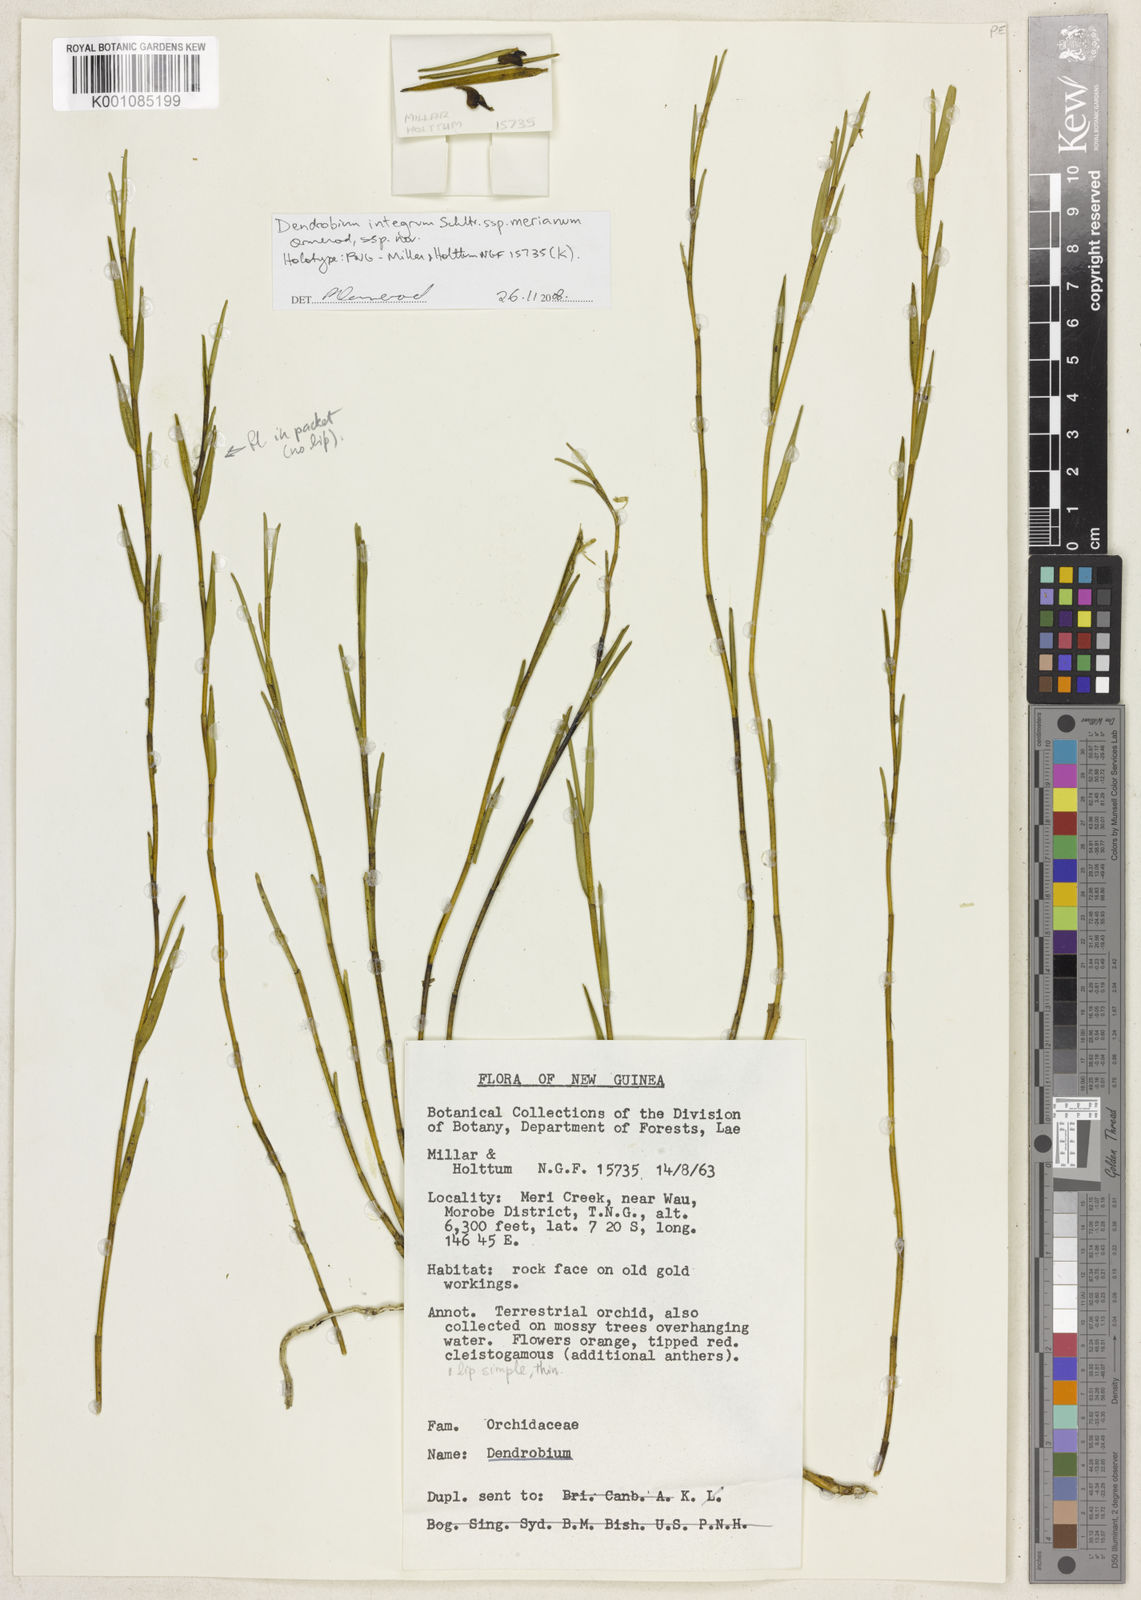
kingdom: Plantae
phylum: Tracheophyta
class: Liliopsida
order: Asparagales
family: Orchidaceae
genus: Dendrobium
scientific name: Dendrobium integrum
